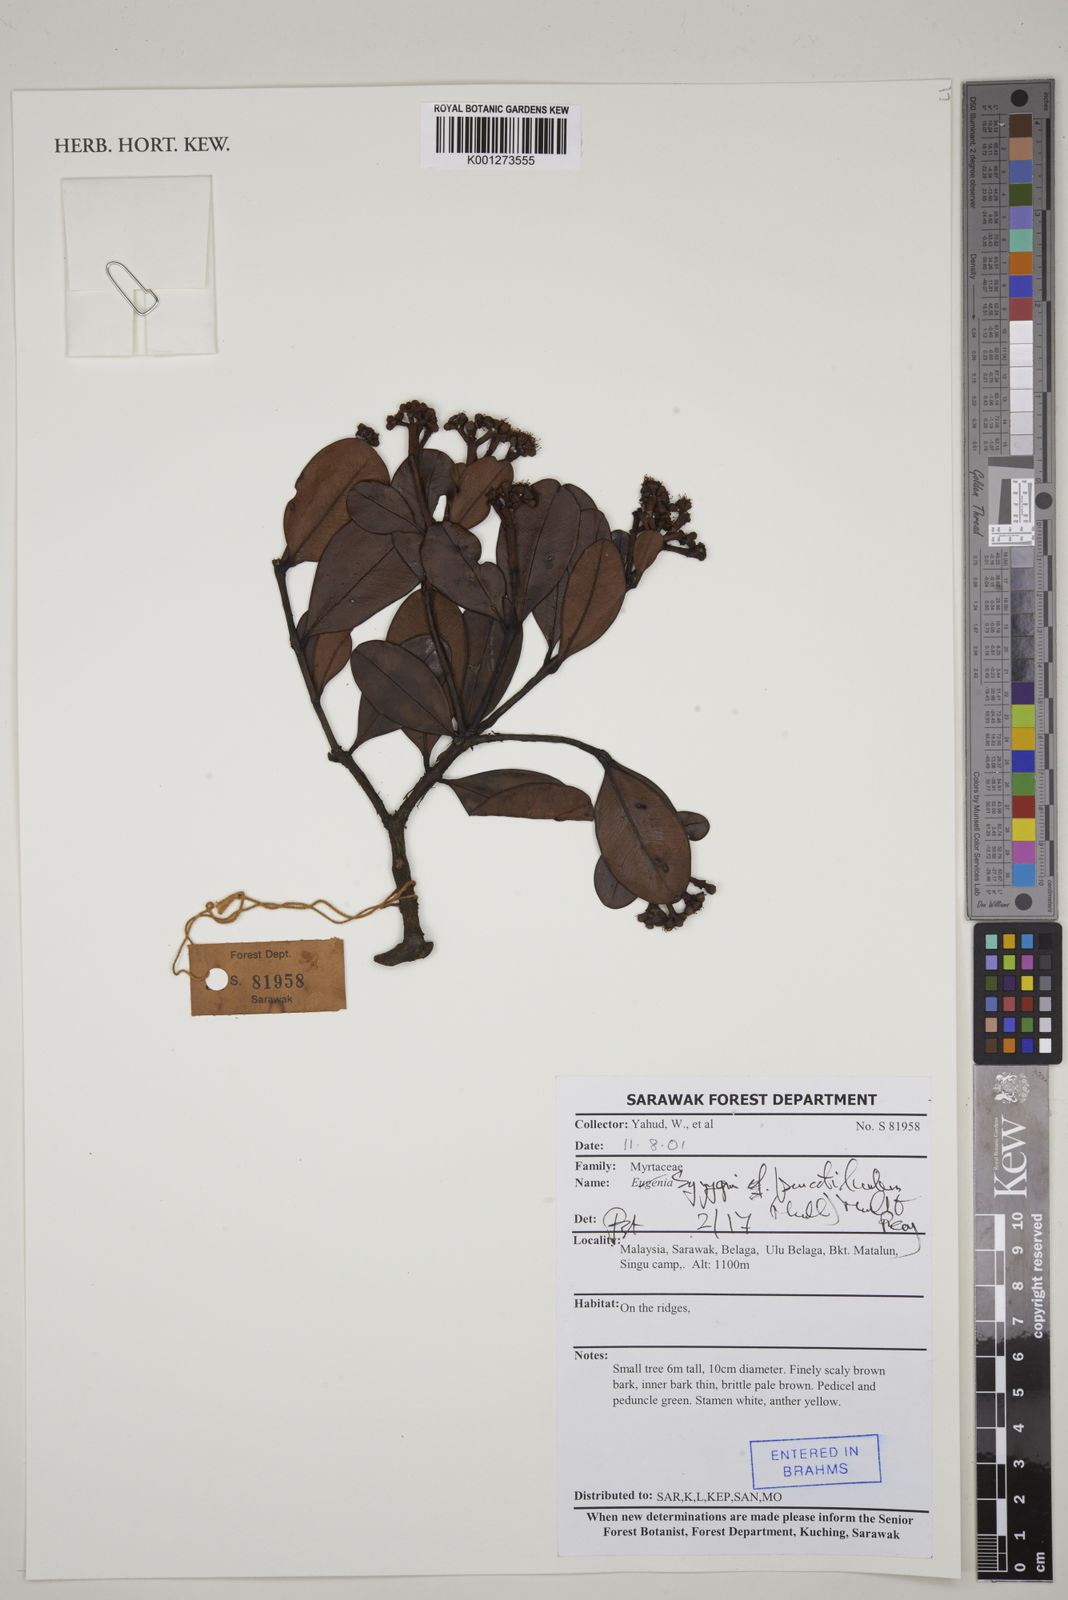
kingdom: Plantae
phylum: Tracheophyta
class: Magnoliopsida
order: Myrtales
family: Myrtaceae
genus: Syzygium
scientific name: Syzygium punctilimbum
